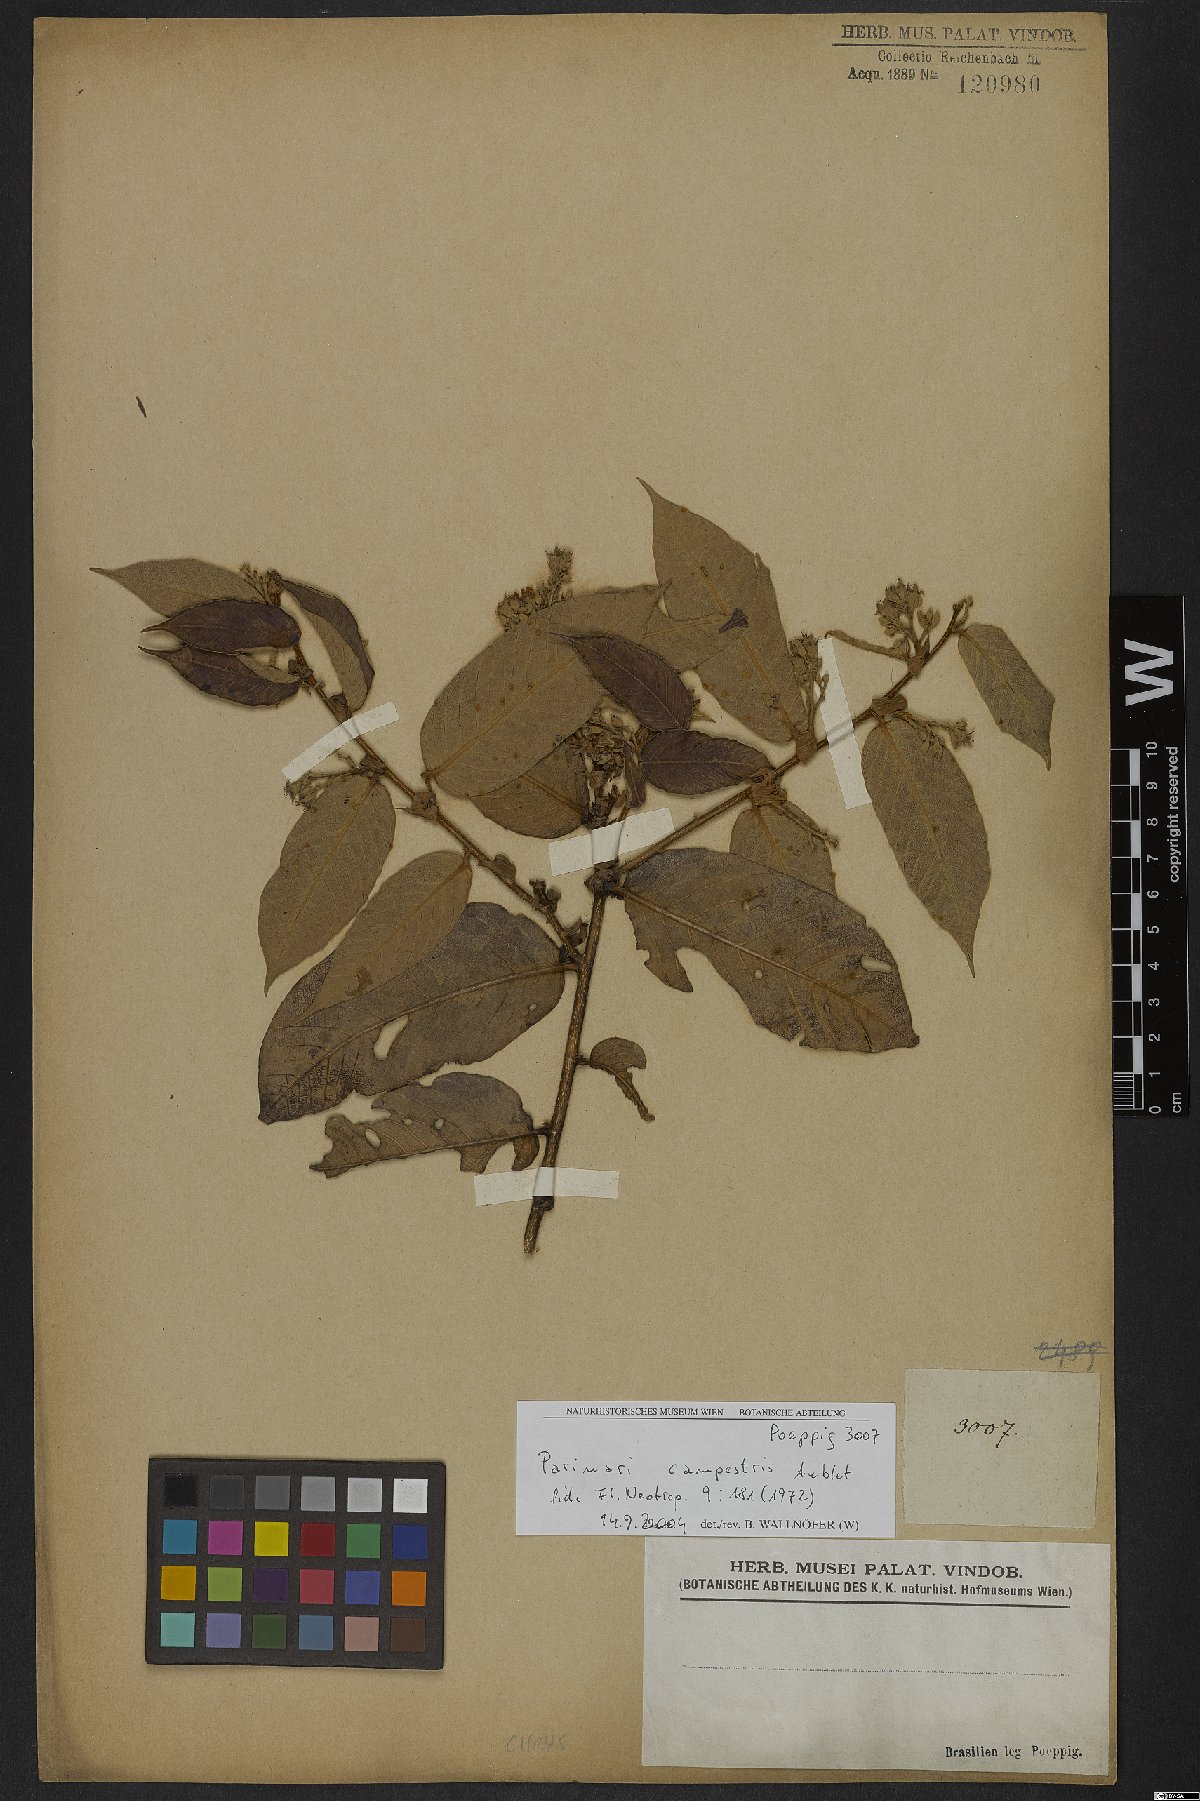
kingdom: Plantae
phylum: Tracheophyta
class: Magnoliopsida
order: Malpighiales
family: Chrysobalanaceae
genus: Parinari
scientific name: Parinari campestris
